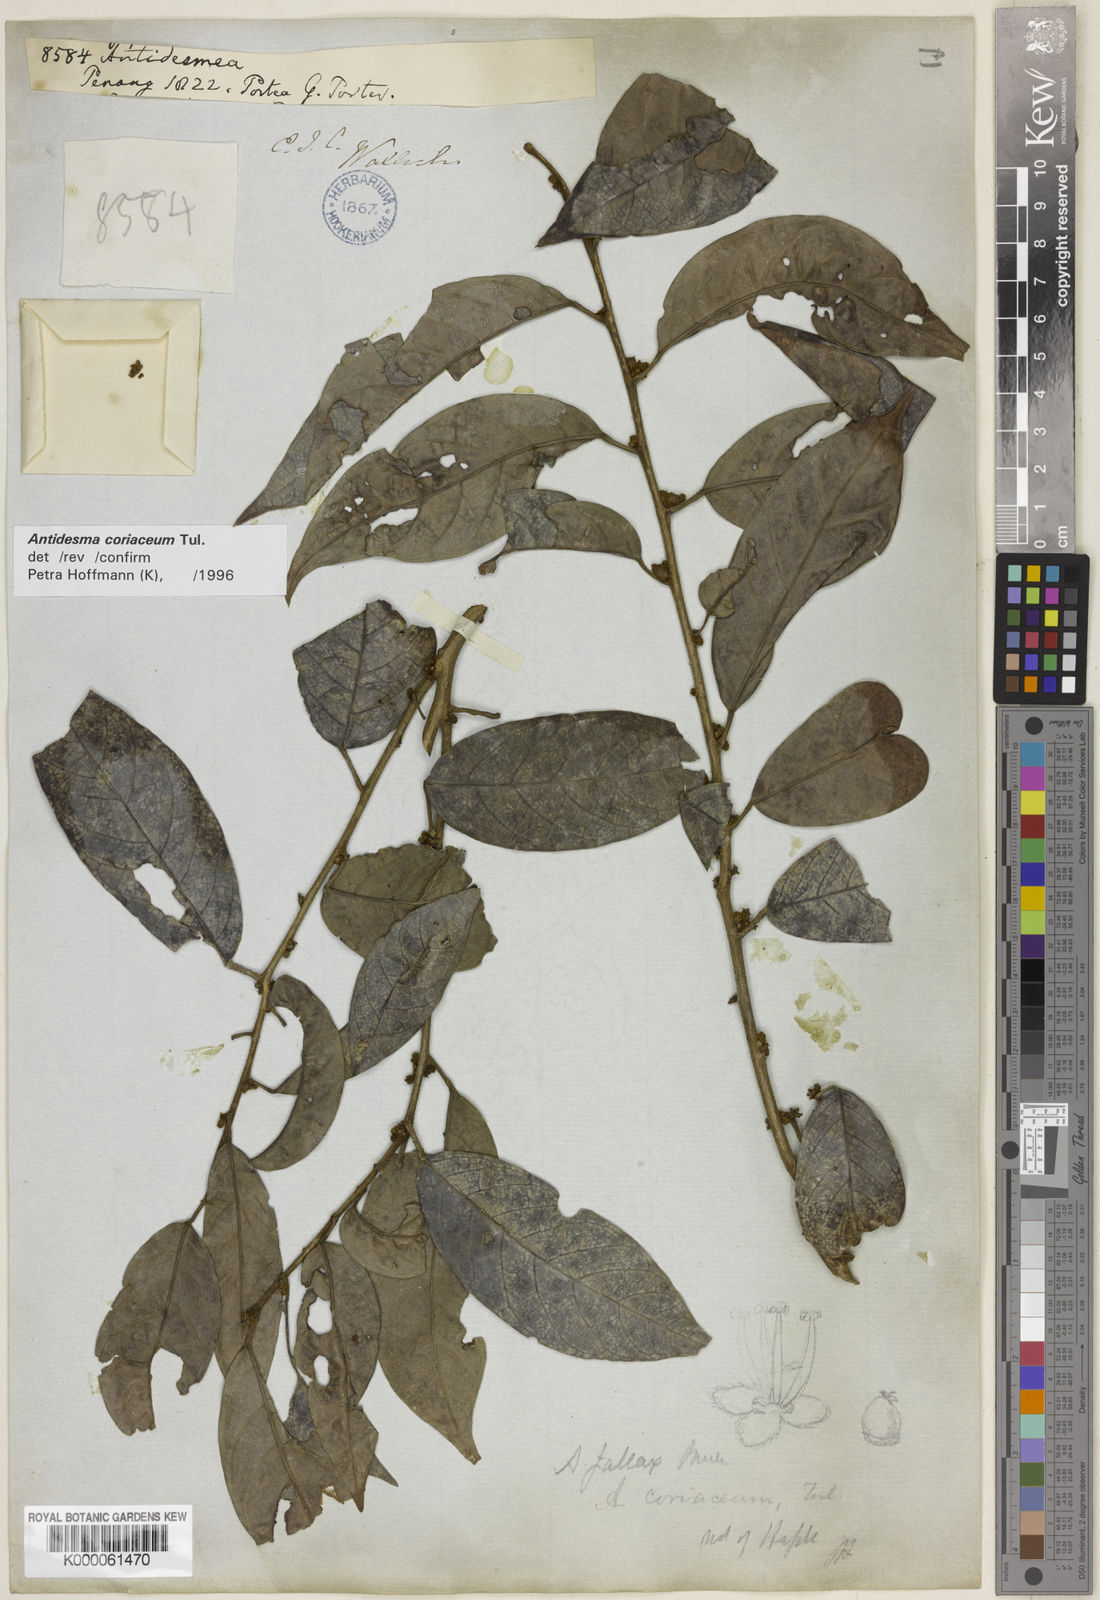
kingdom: Plantae
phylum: Tracheophyta
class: Magnoliopsida
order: Malpighiales
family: Phyllanthaceae
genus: Antidesma
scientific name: Antidesma coriaceum
